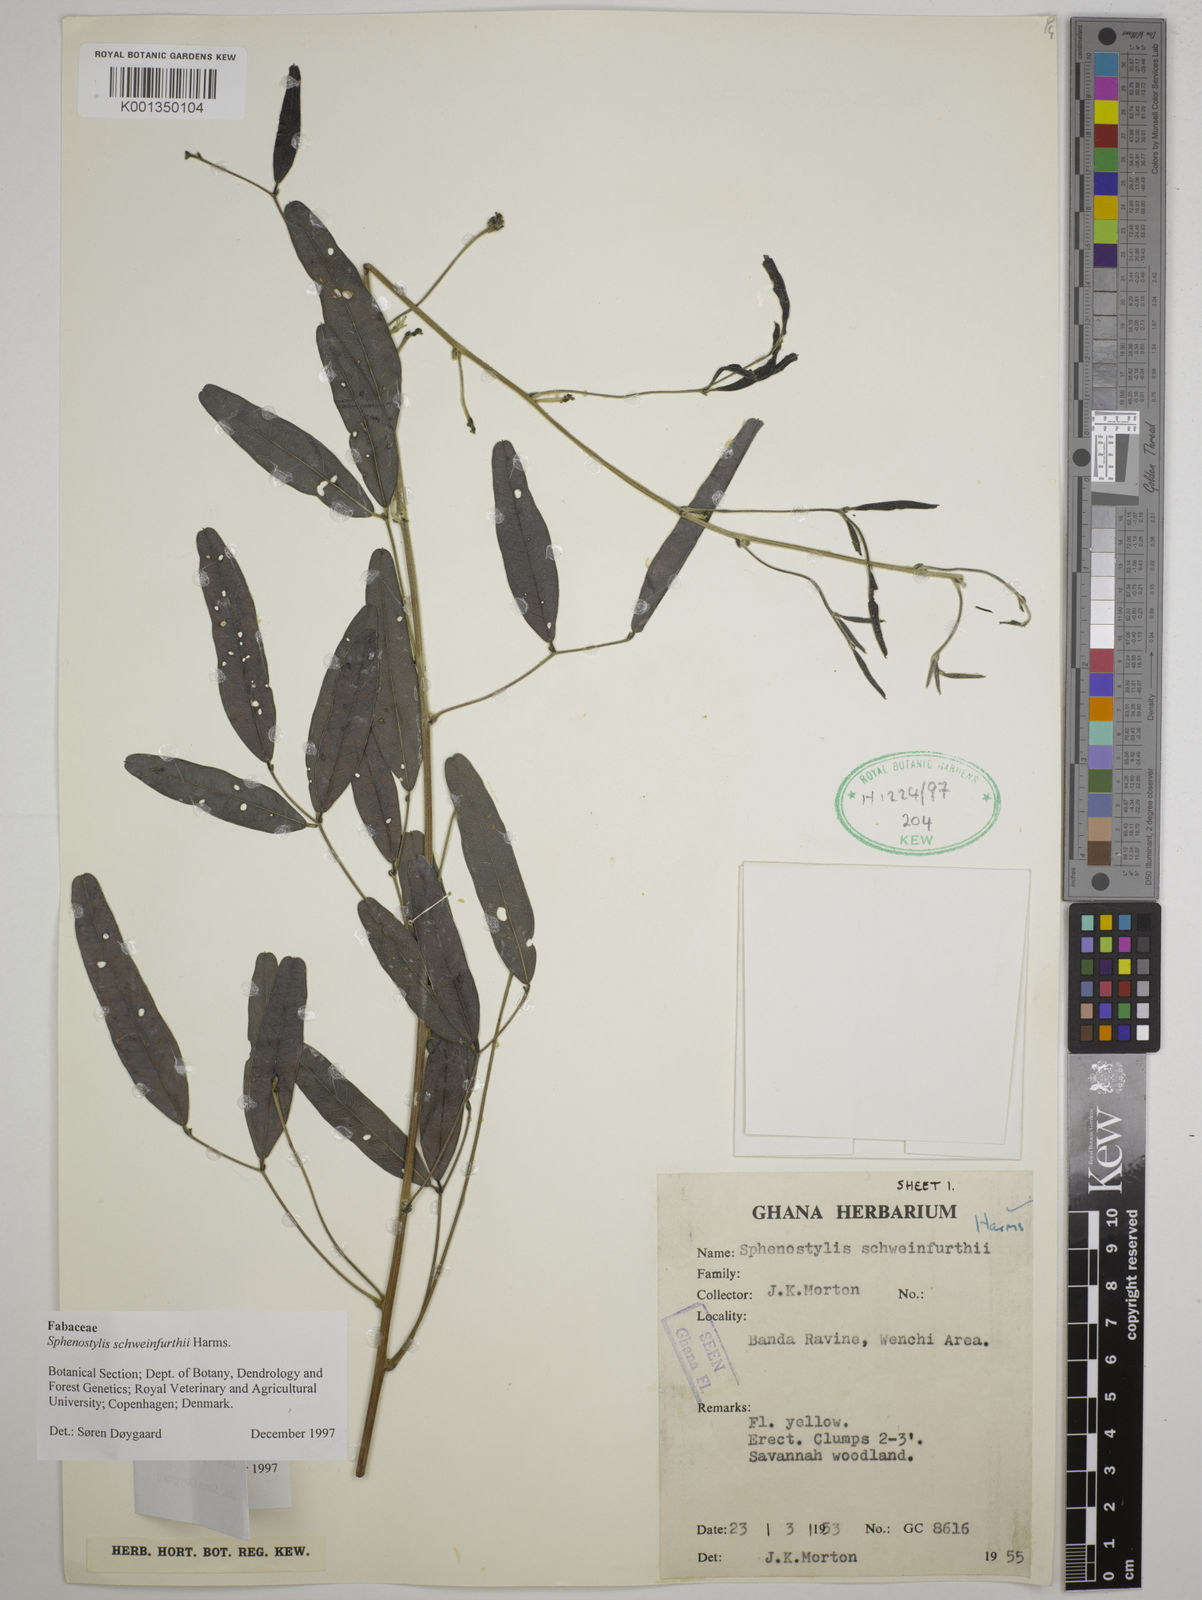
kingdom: Plantae
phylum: Tracheophyta
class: Magnoliopsida
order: Fabales
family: Fabaceae
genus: Sphenostylis
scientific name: Sphenostylis schweinfurthii
